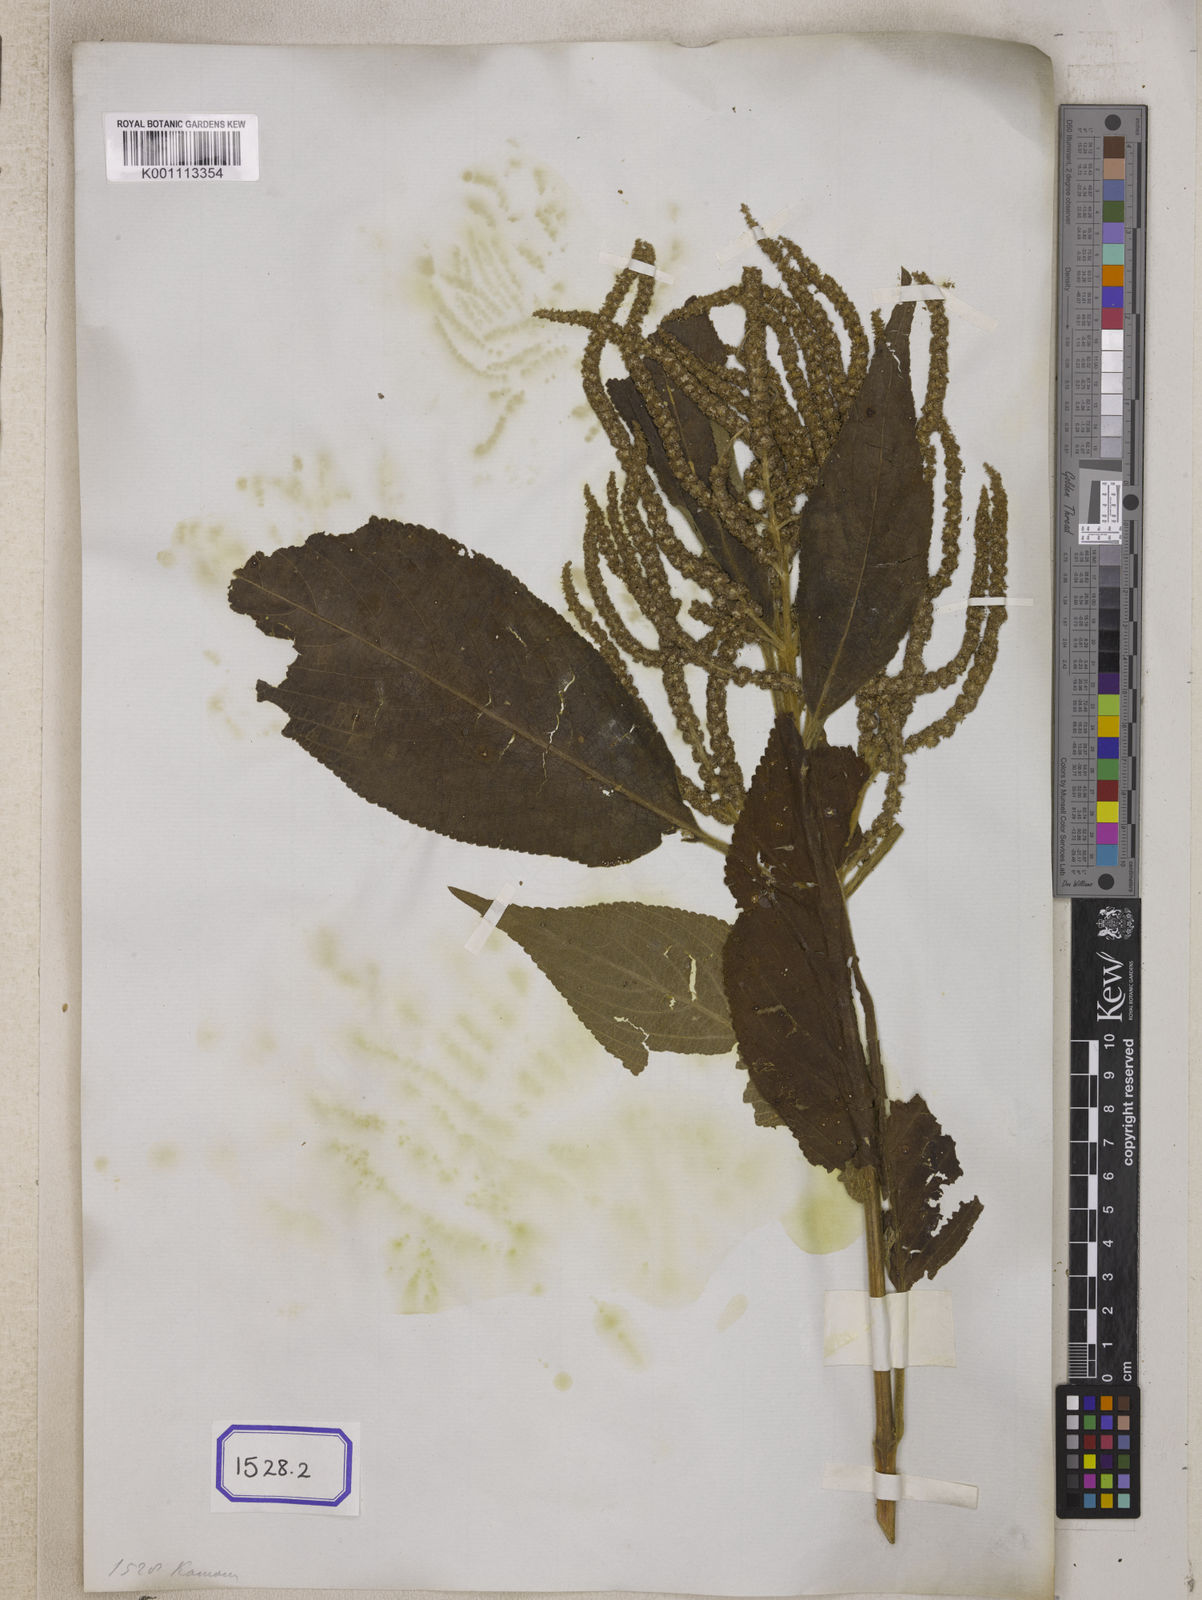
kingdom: Plantae
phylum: Tracheophyta
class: Magnoliopsida
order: Lamiales
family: Lamiaceae
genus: Colebrookea
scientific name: Colebrookea
